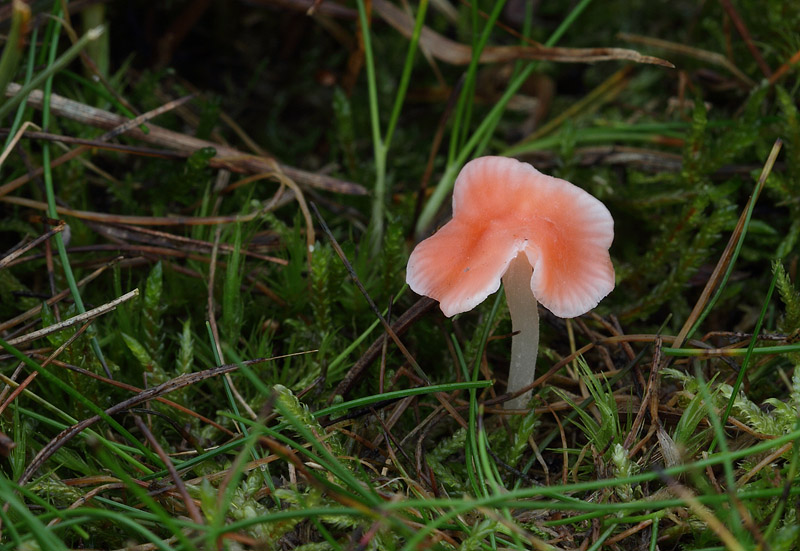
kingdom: Fungi
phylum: Basidiomycota
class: Agaricomycetes
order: Agaricales
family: Mycenaceae
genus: Atheniella
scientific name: Atheniella adonis
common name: rønnerød huesvamp
